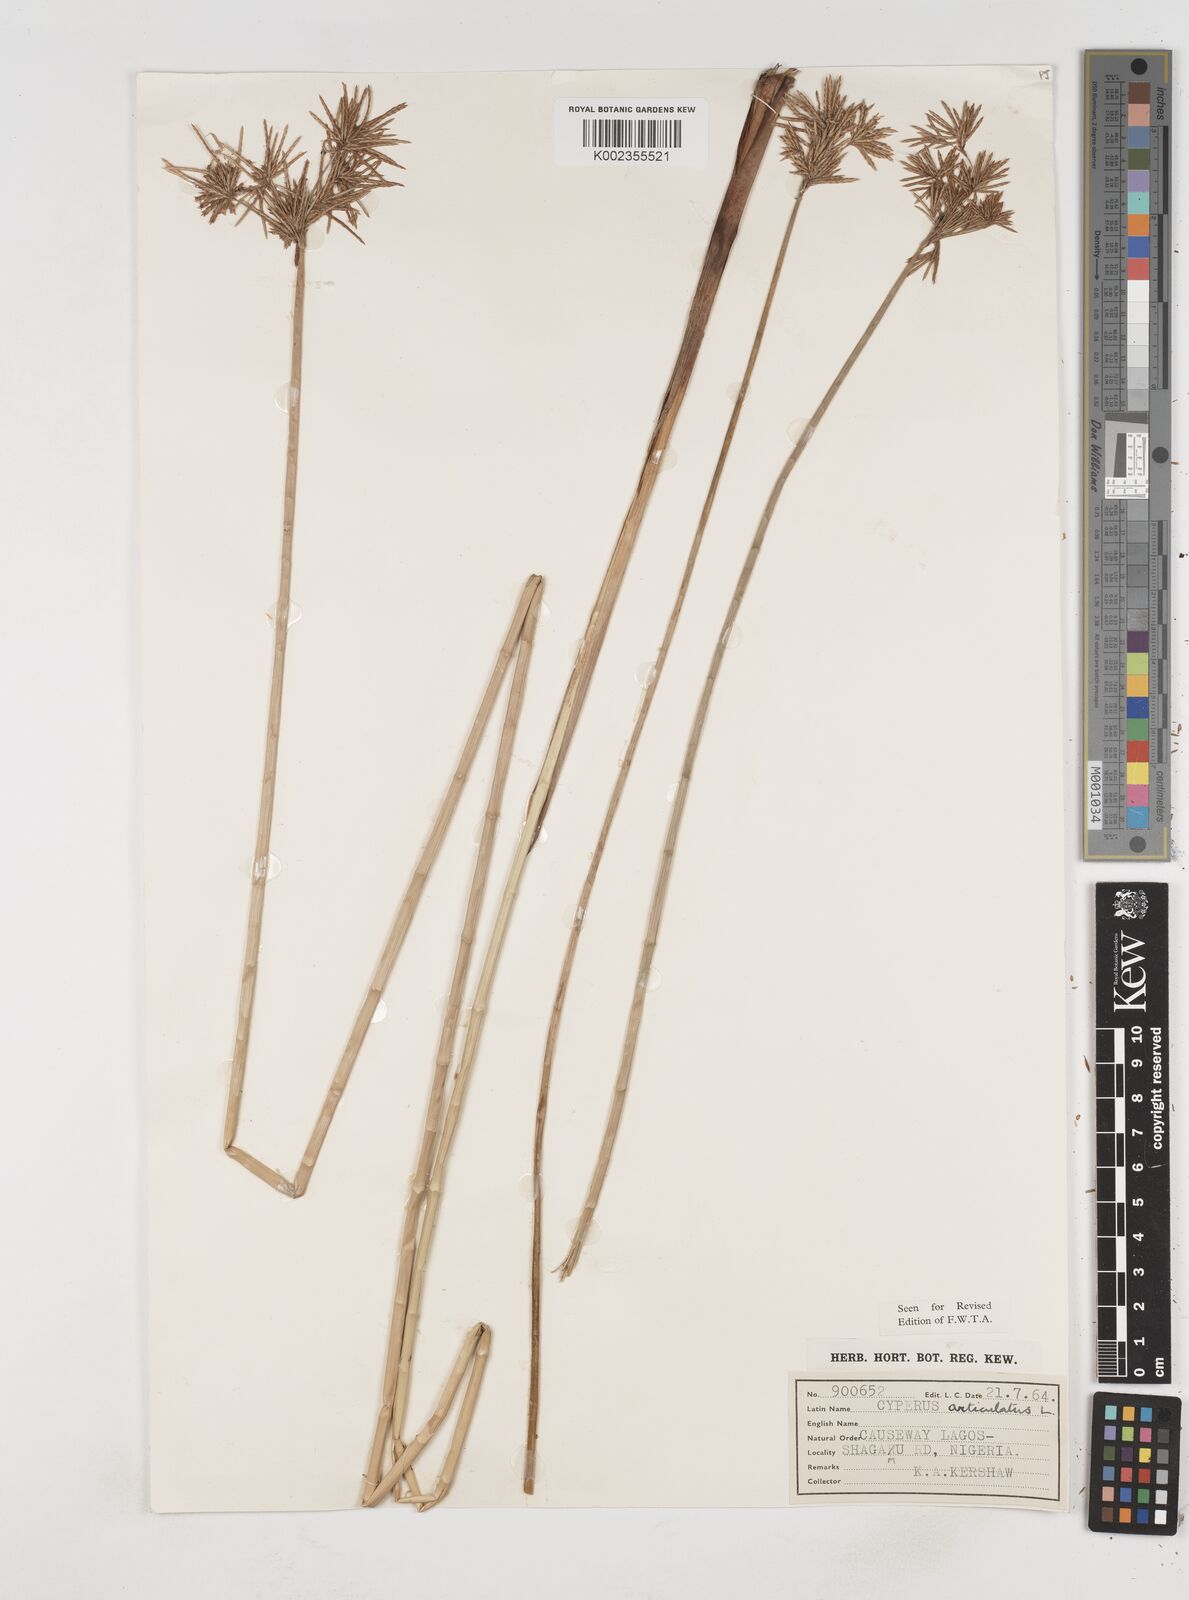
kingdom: Plantae
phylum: Tracheophyta
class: Liliopsida
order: Poales
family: Cyperaceae
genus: Cyperus
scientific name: Cyperus articulatus
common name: Jointed flatsedge
